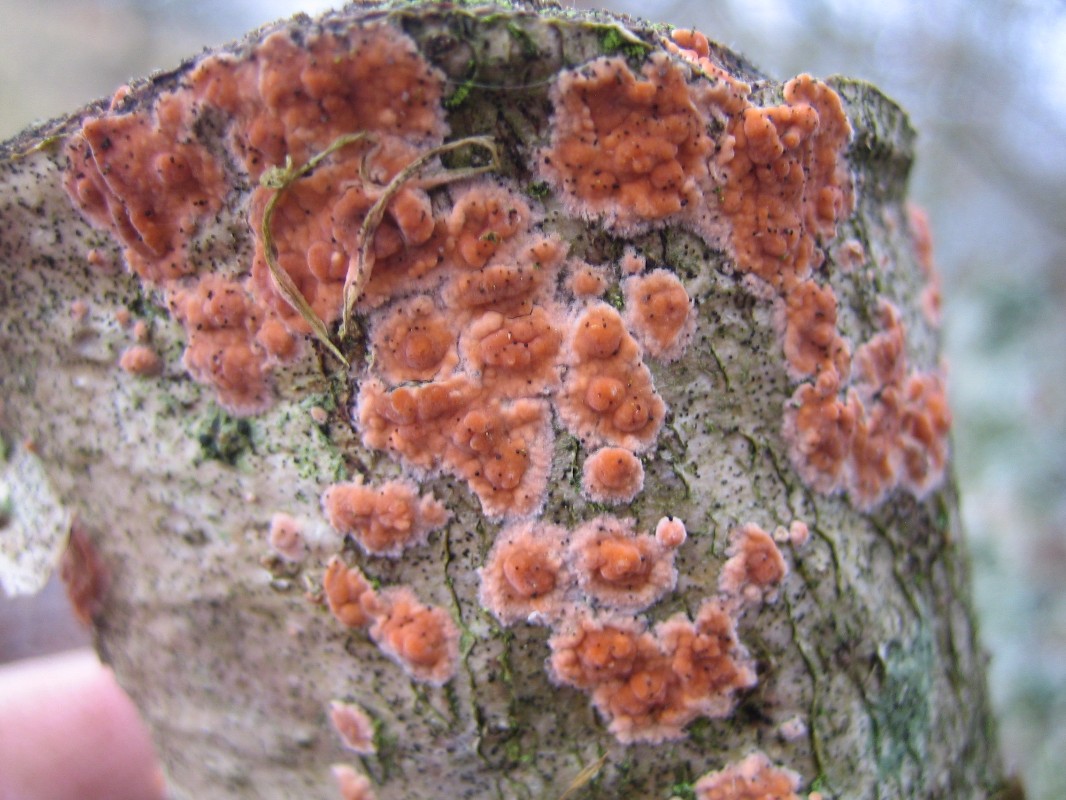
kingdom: Fungi
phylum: Basidiomycota
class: Agaricomycetes
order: Russulales
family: Peniophoraceae
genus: Peniophora
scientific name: Peniophora incarnata
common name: laksefarvet voksskind
